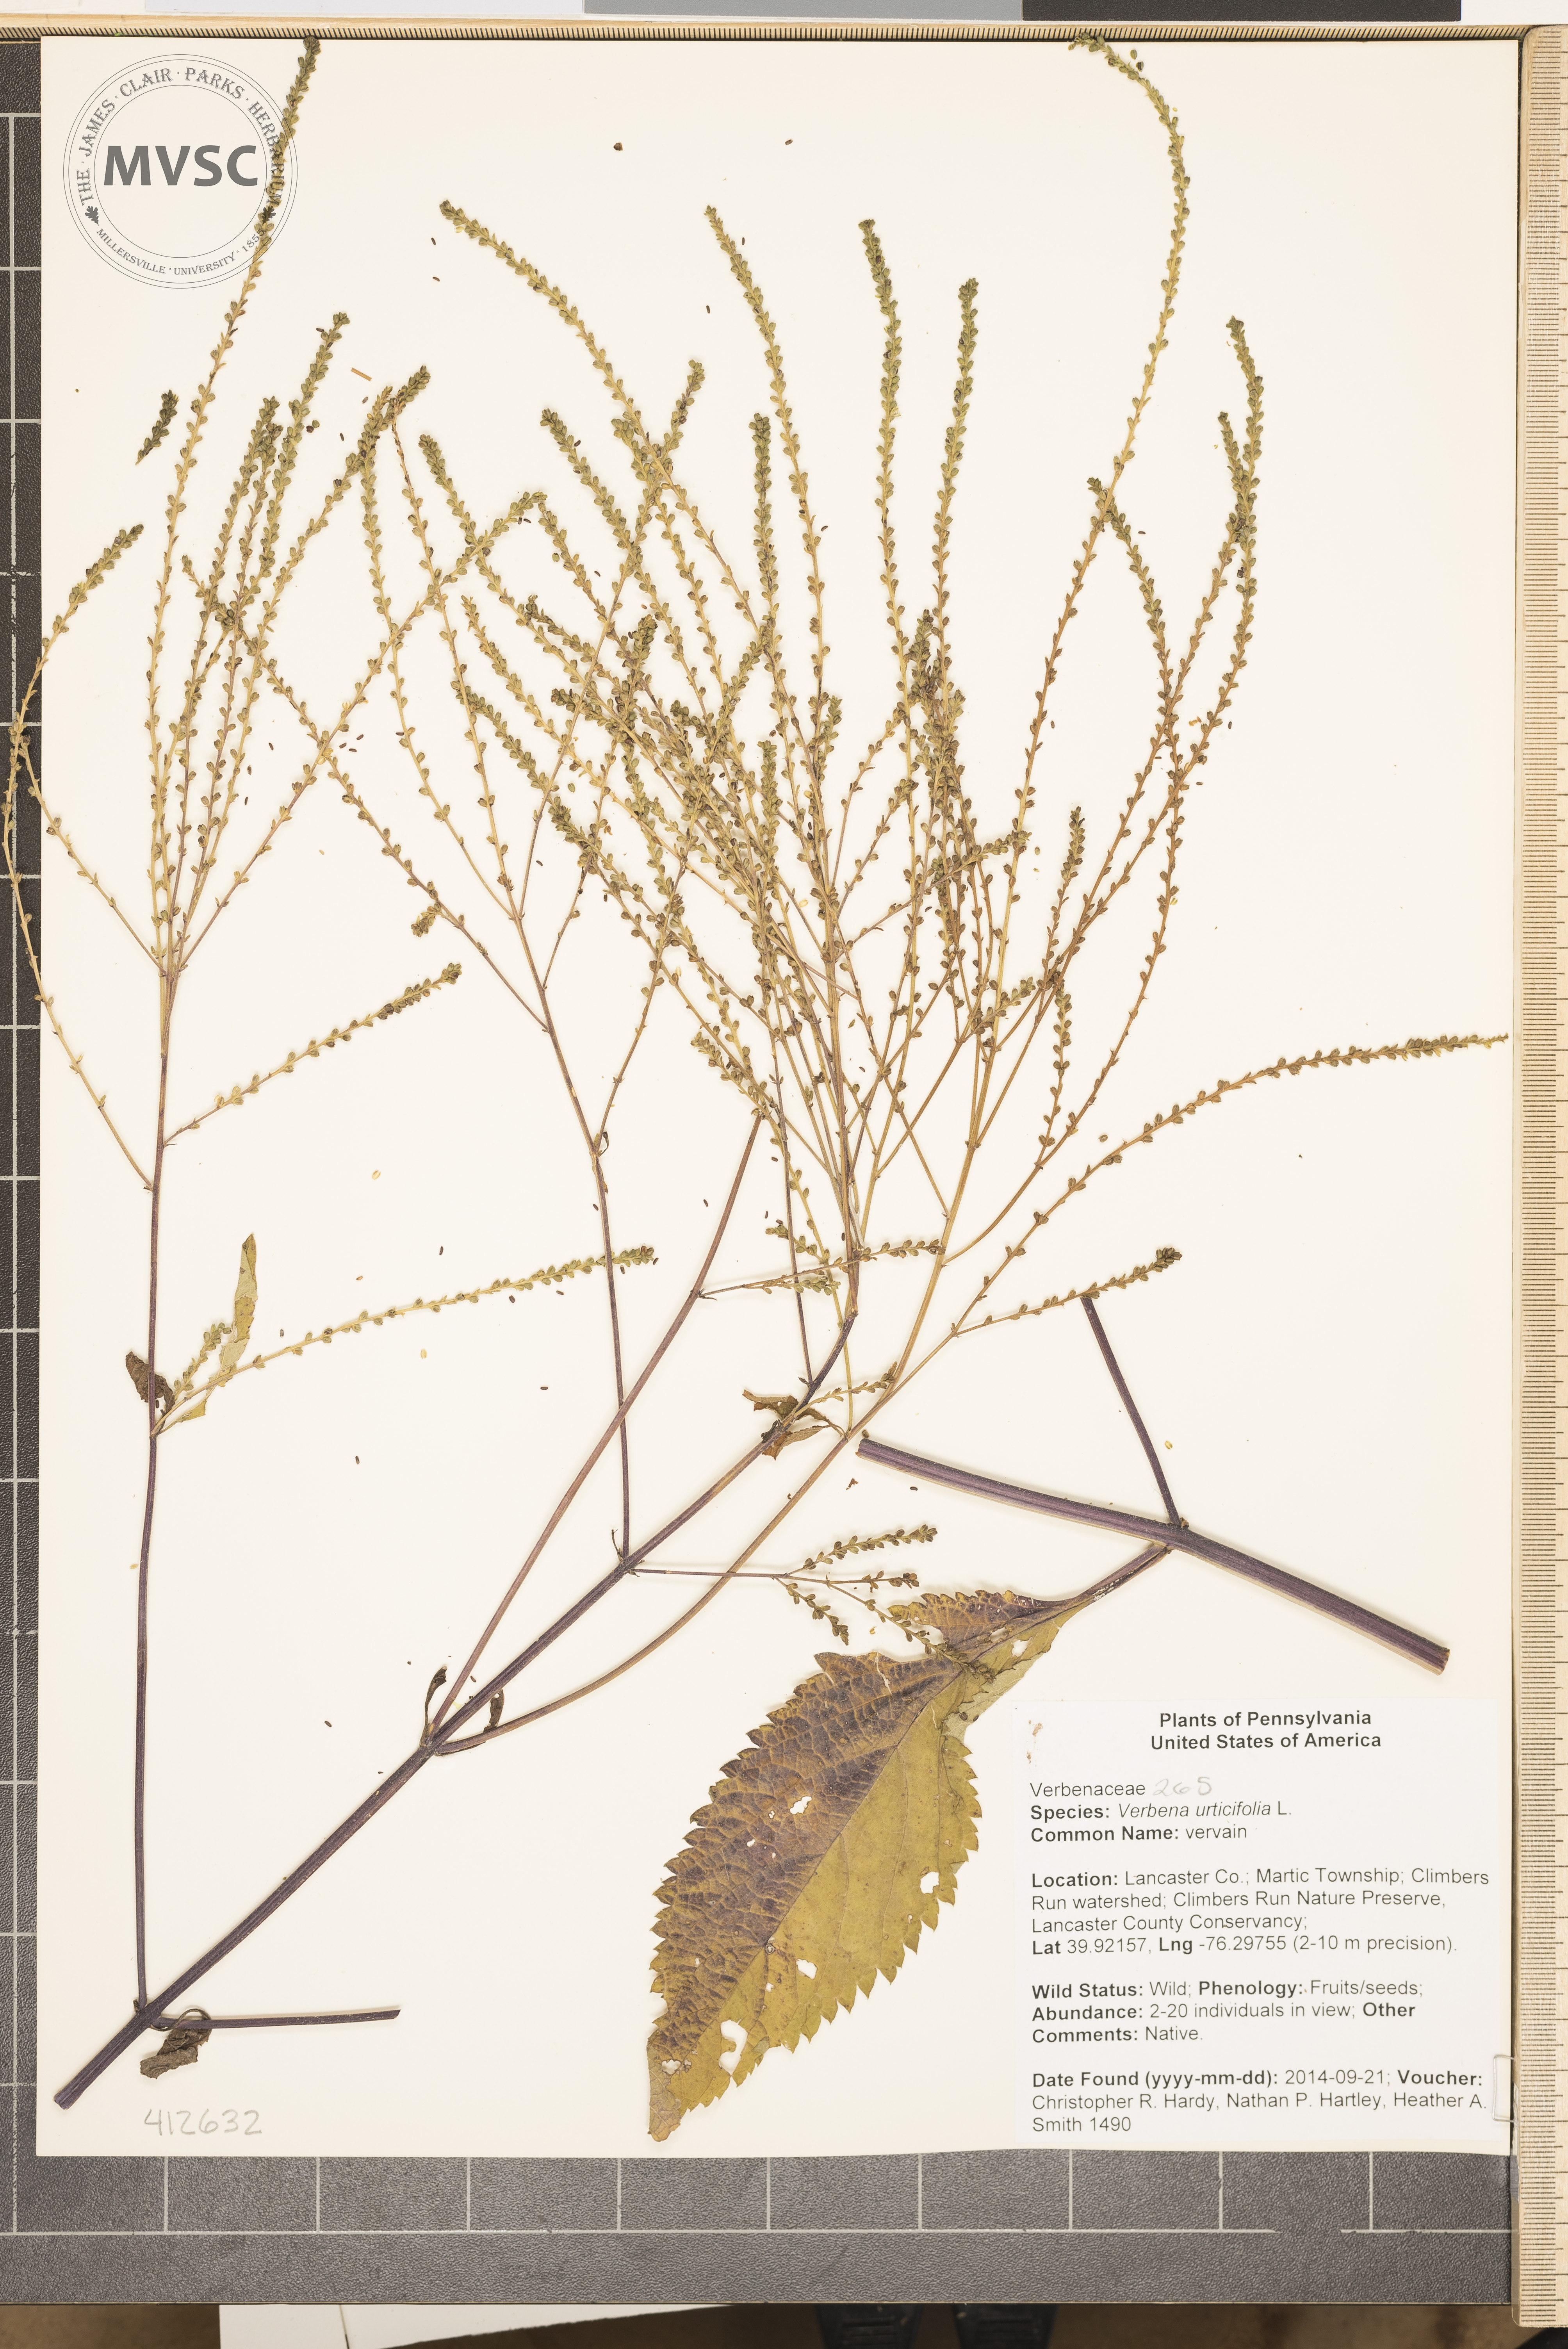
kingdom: Plantae
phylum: Tracheophyta
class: Magnoliopsida
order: Lamiales
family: Verbenaceae
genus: Verbena
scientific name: Verbena urticifolia
